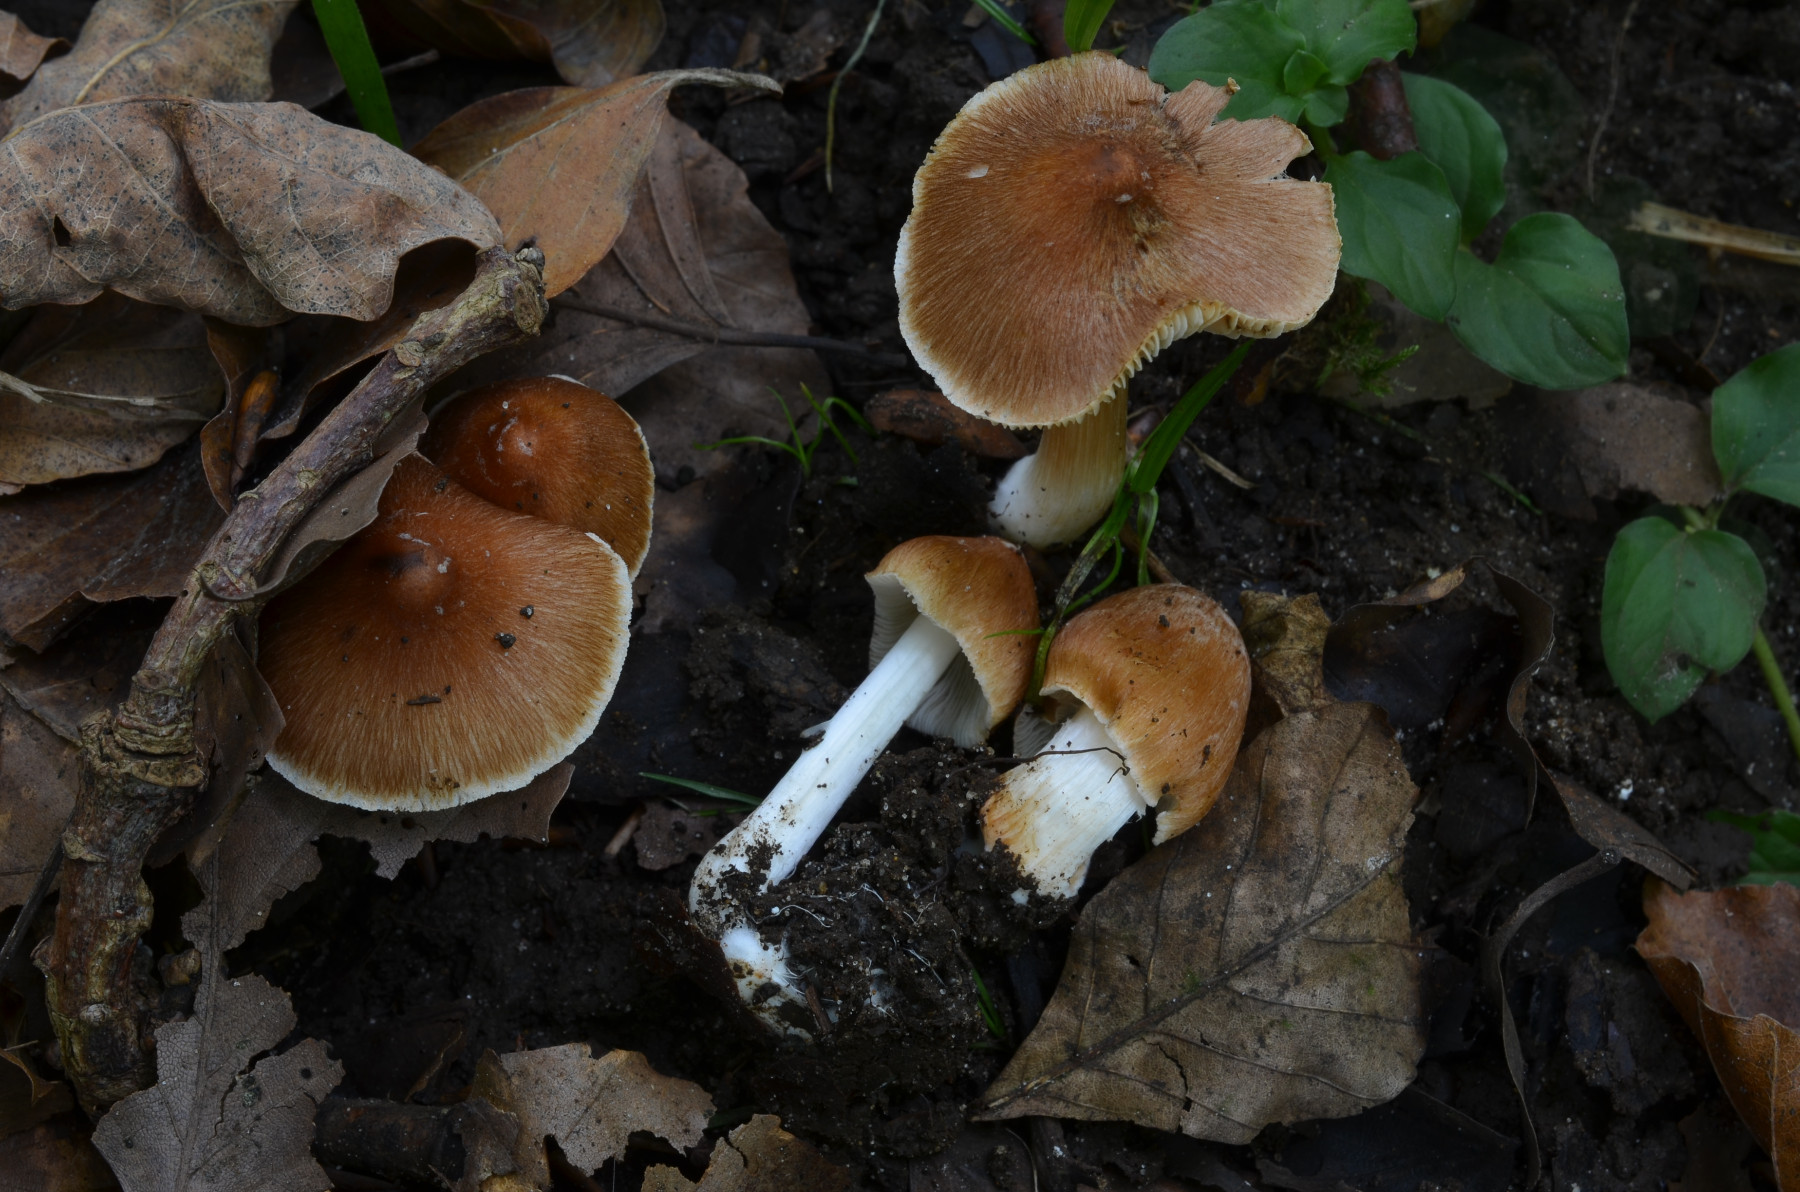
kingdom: Fungi
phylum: Basidiomycota
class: Agaricomycetes
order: Agaricales
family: Inocybaceae
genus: Inosperma
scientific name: Inosperma fulvum
